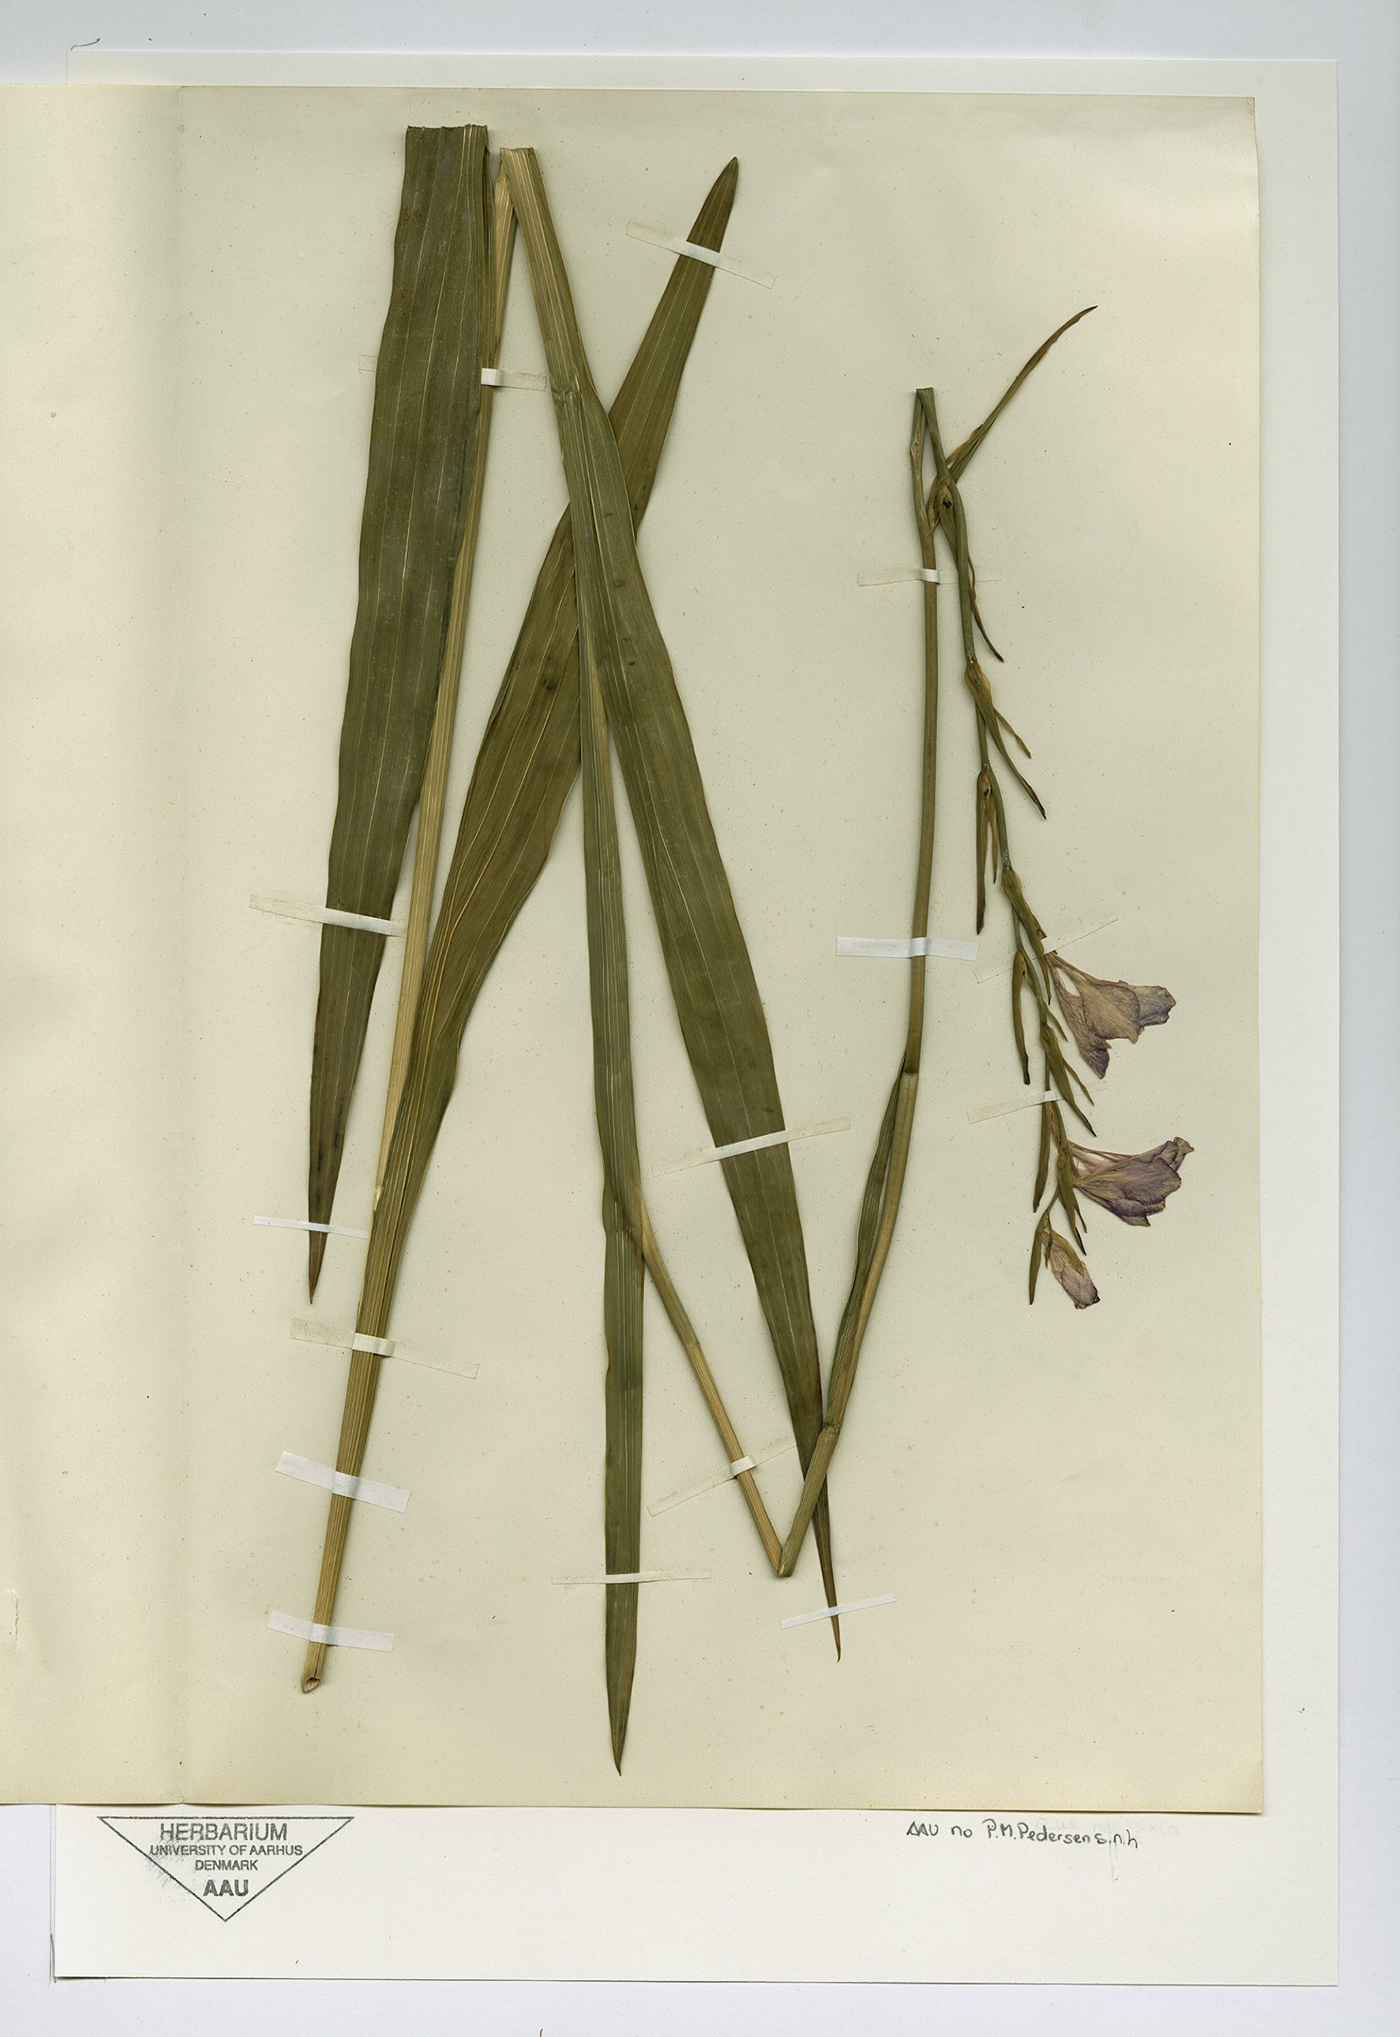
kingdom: Plantae
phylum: Tracheophyta
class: Liliopsida
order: Asparagales
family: Iridaceae
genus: Gladiolus
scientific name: Gladiolus communis
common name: Eastern gladiolus
